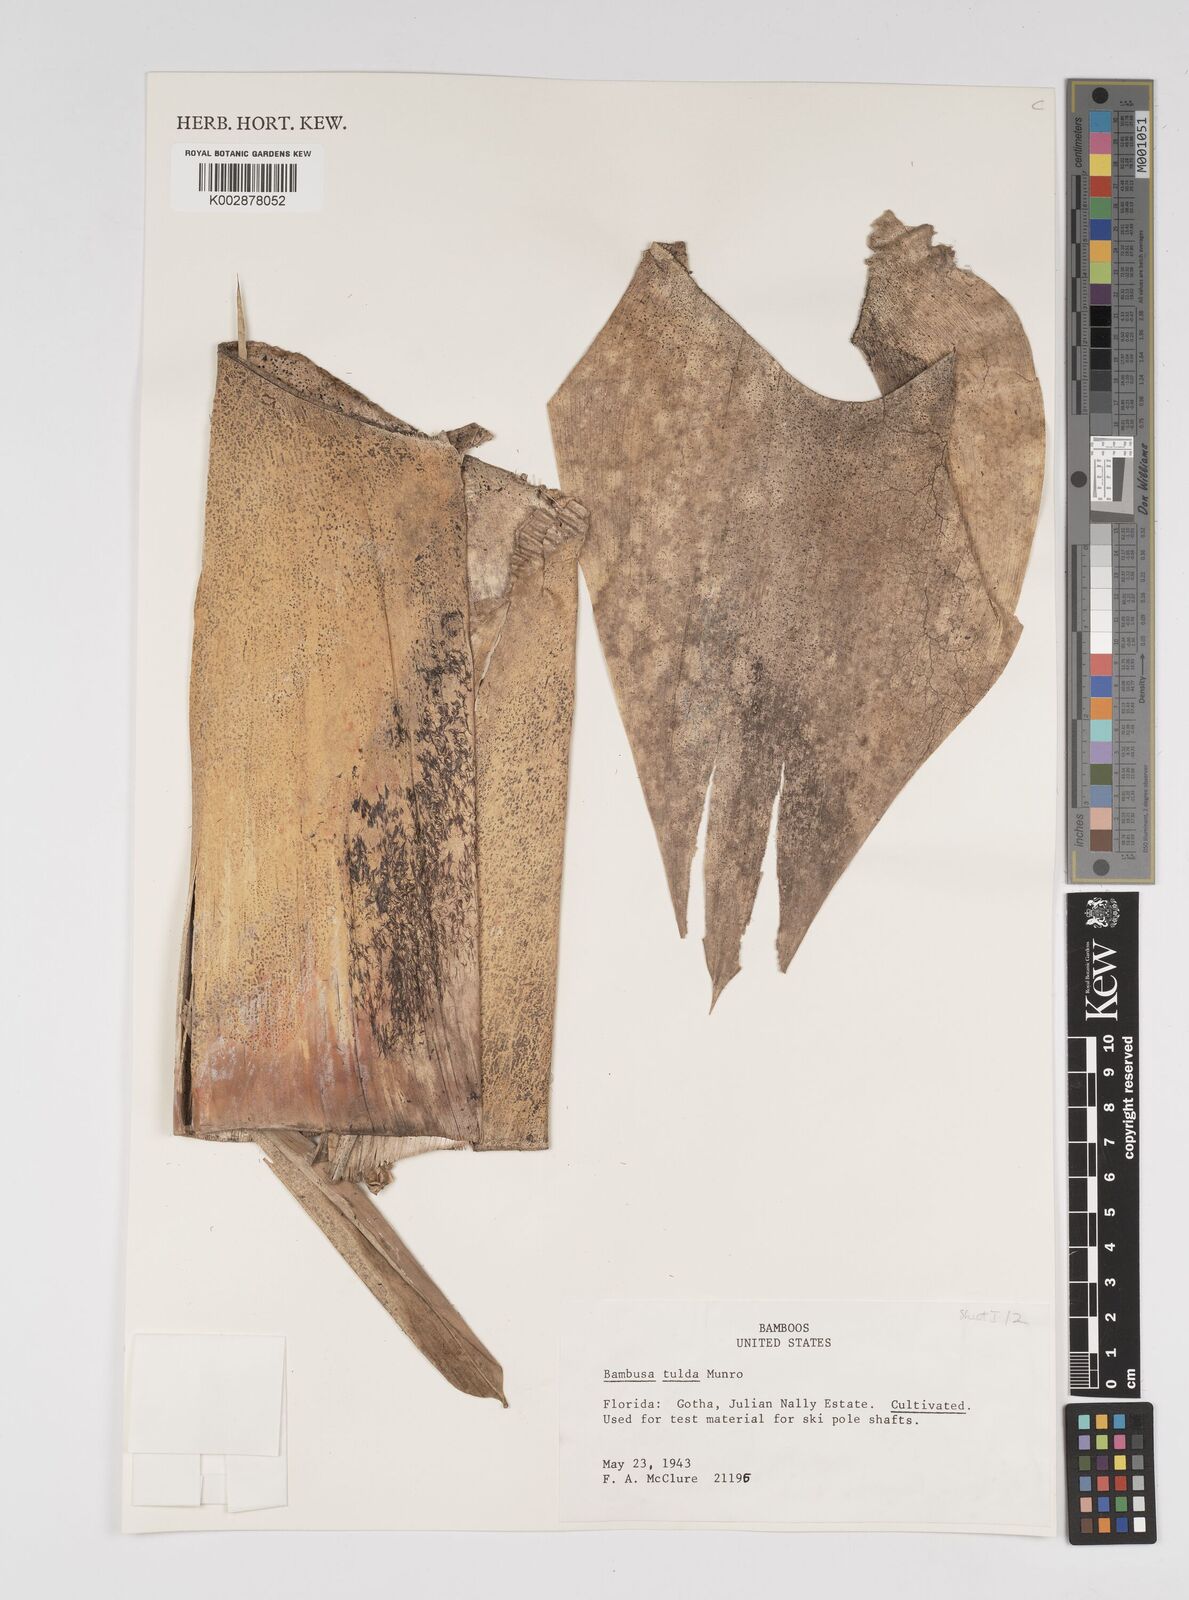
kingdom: Plantae
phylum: Tracheophyta
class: Liliopsida
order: Poales
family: Poaceae
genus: Bambusa
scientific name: Bambusa tulda
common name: Bengal bamboo
